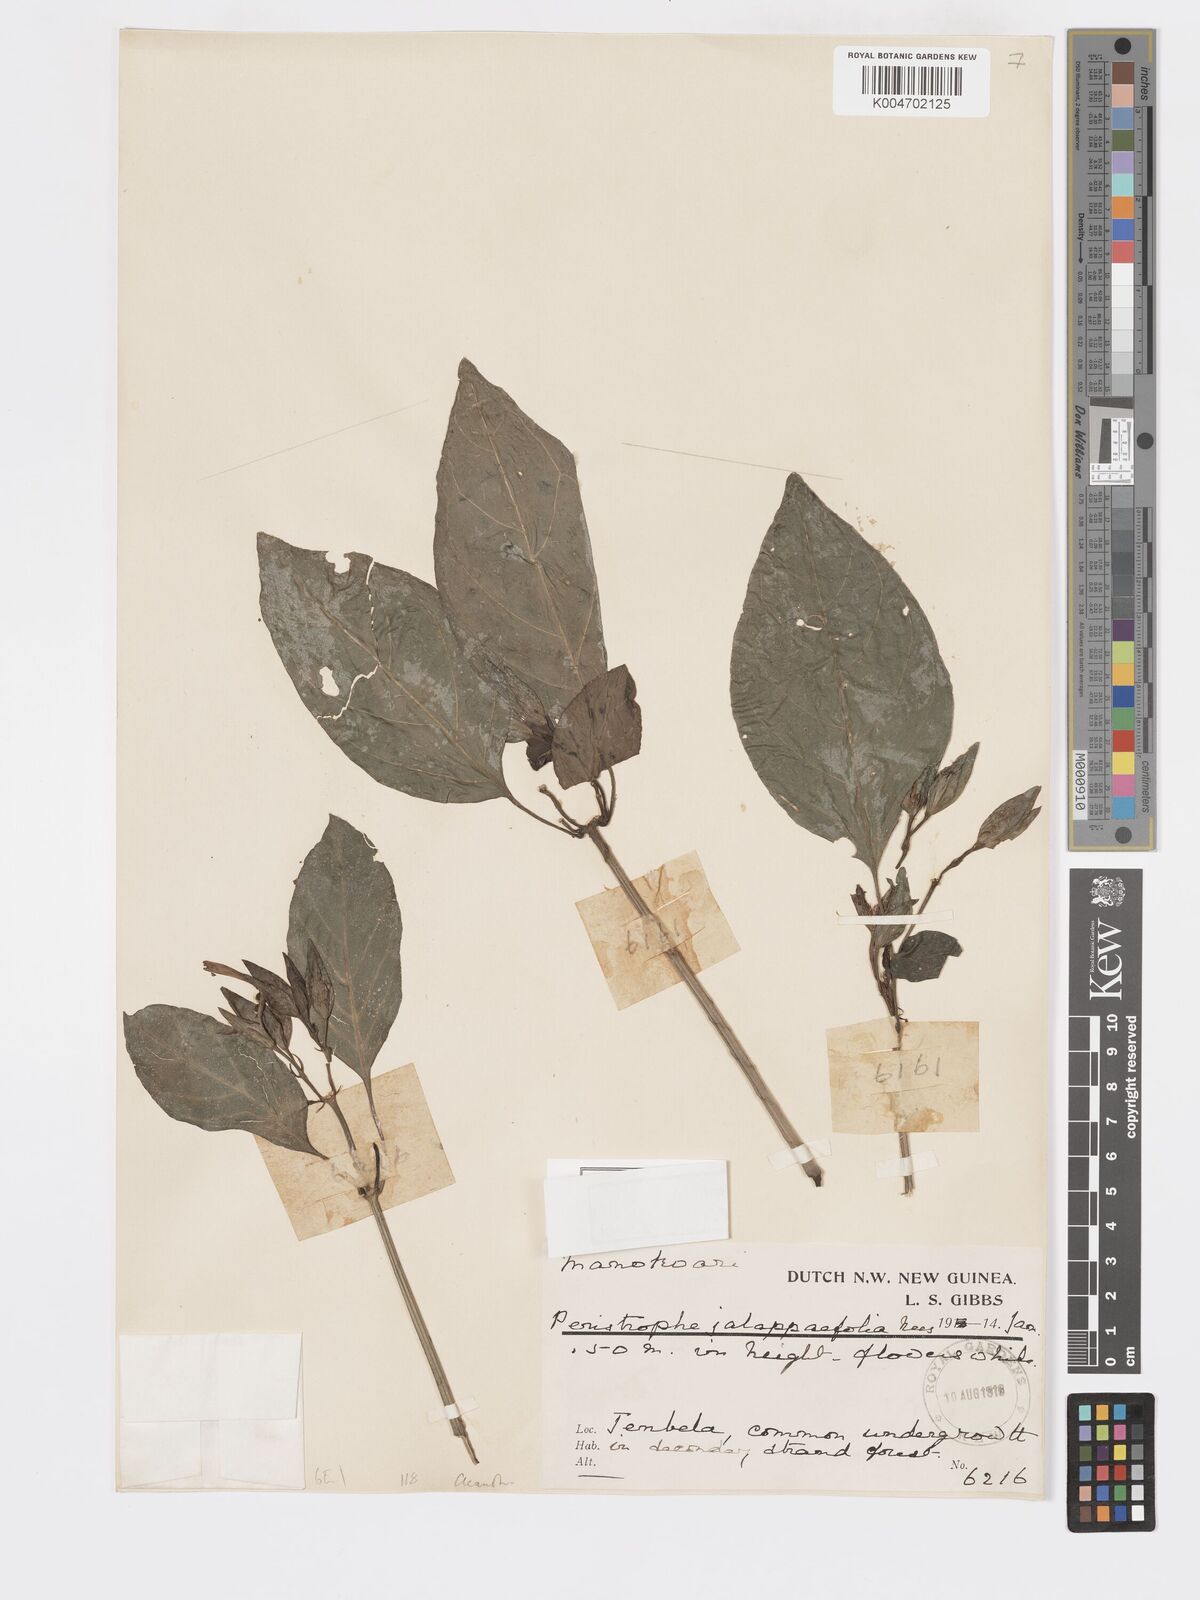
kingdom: Plantae
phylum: Tracheophyta
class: Magnoliopsida
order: Lamiales
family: Acanthaceae
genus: Dicliptera
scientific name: Dicliptera
